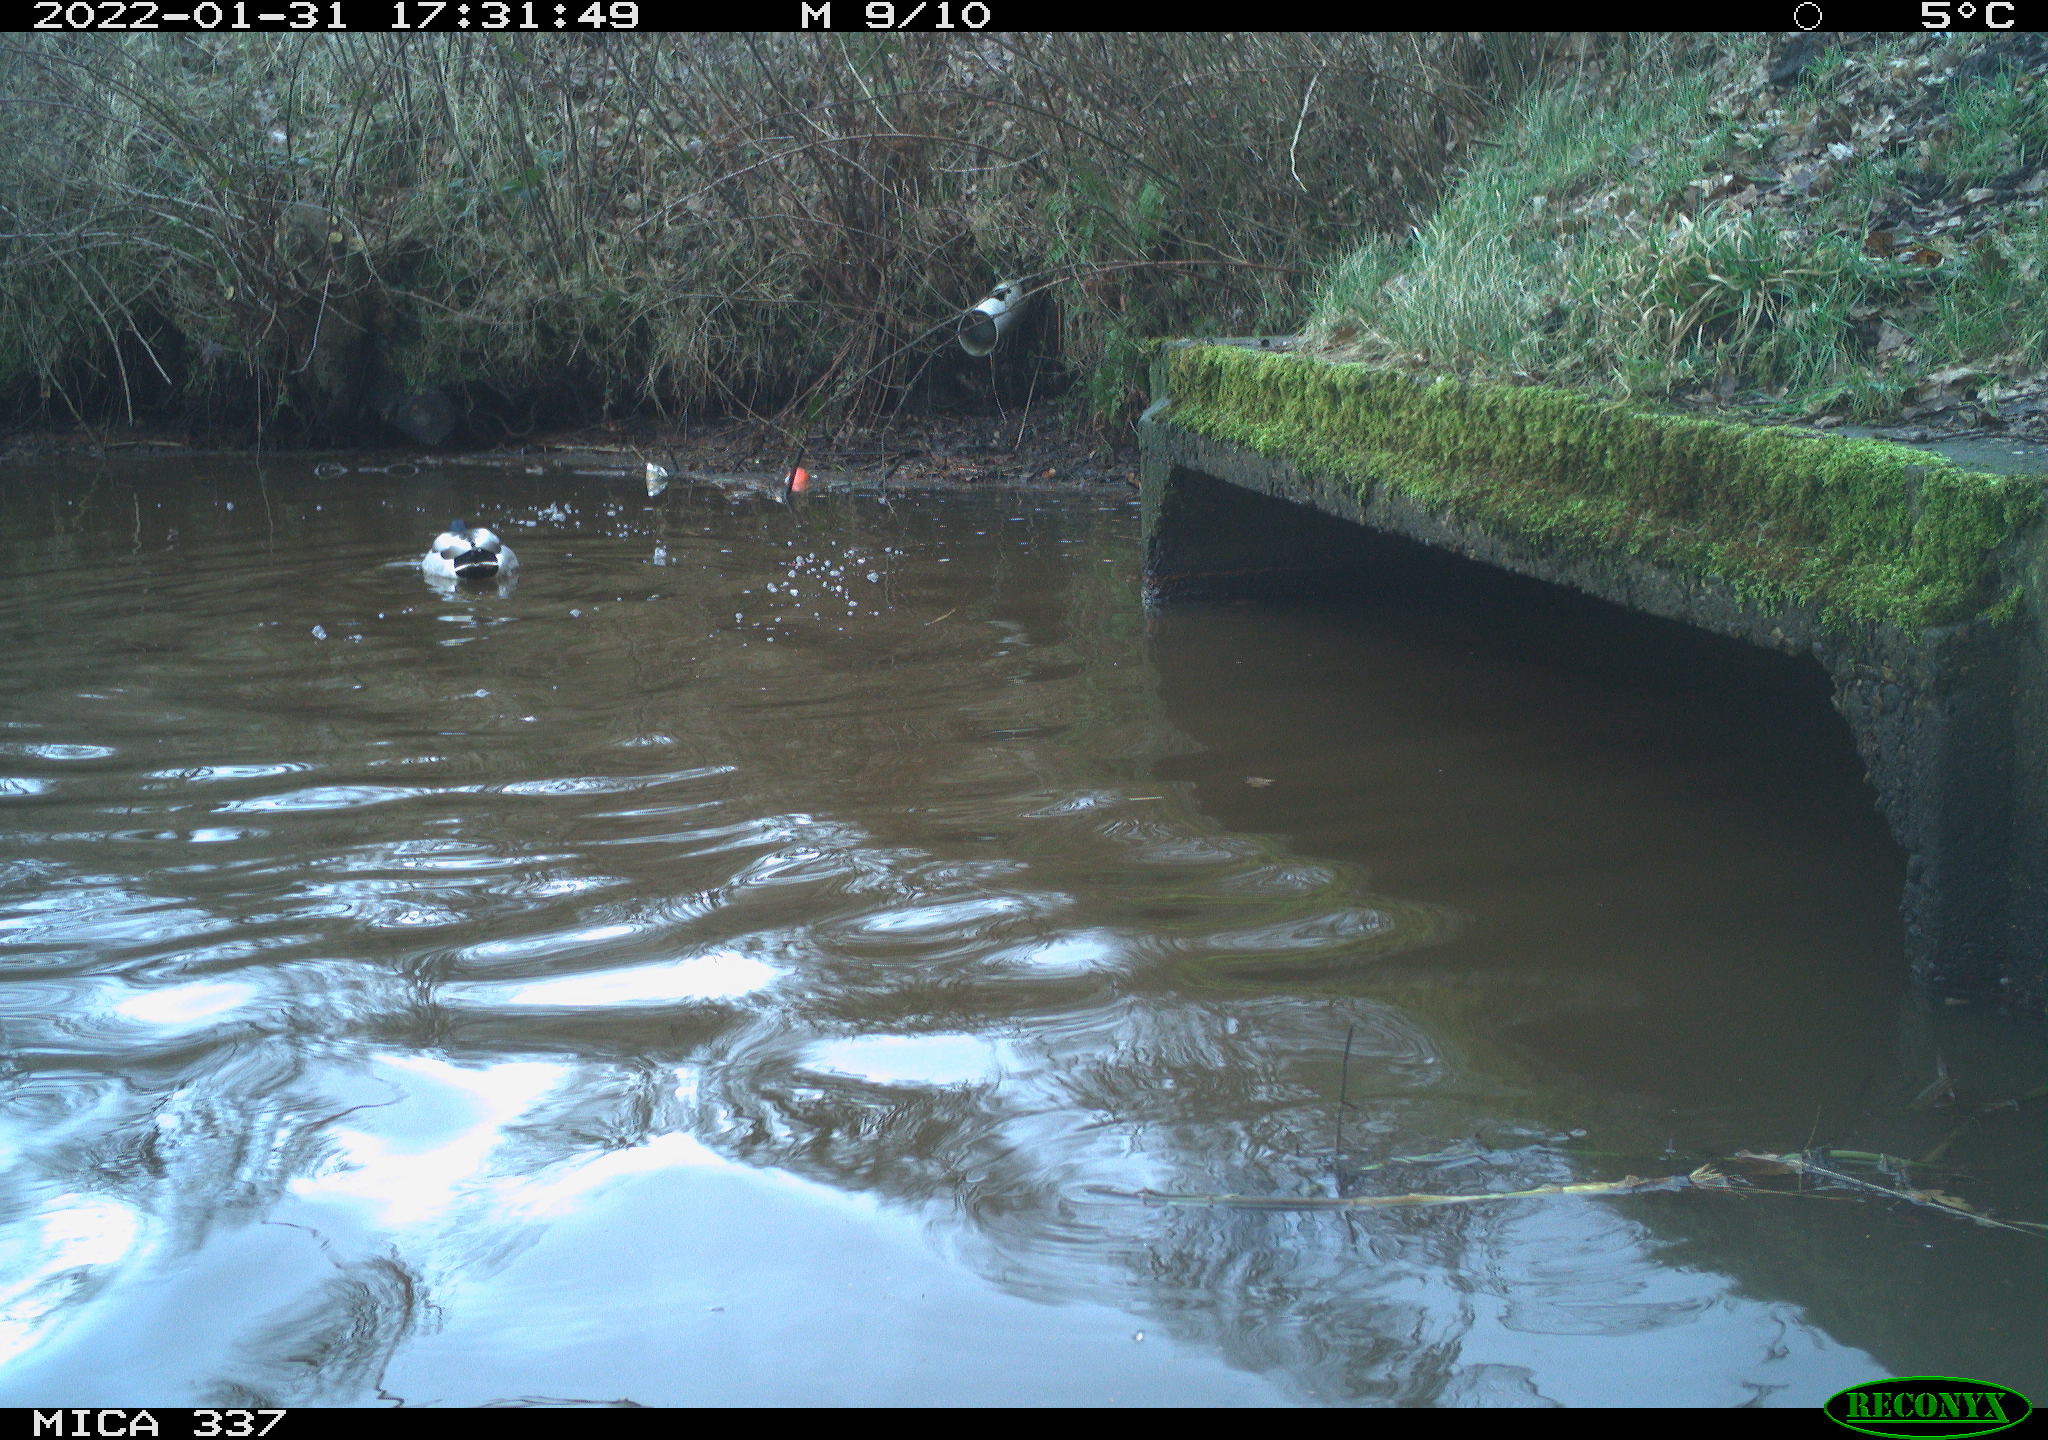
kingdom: Animalia
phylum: Chordata
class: Aves
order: Anseriformes
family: Anatidae
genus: Anas
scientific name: Anas platyrhynchos
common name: Mallard
